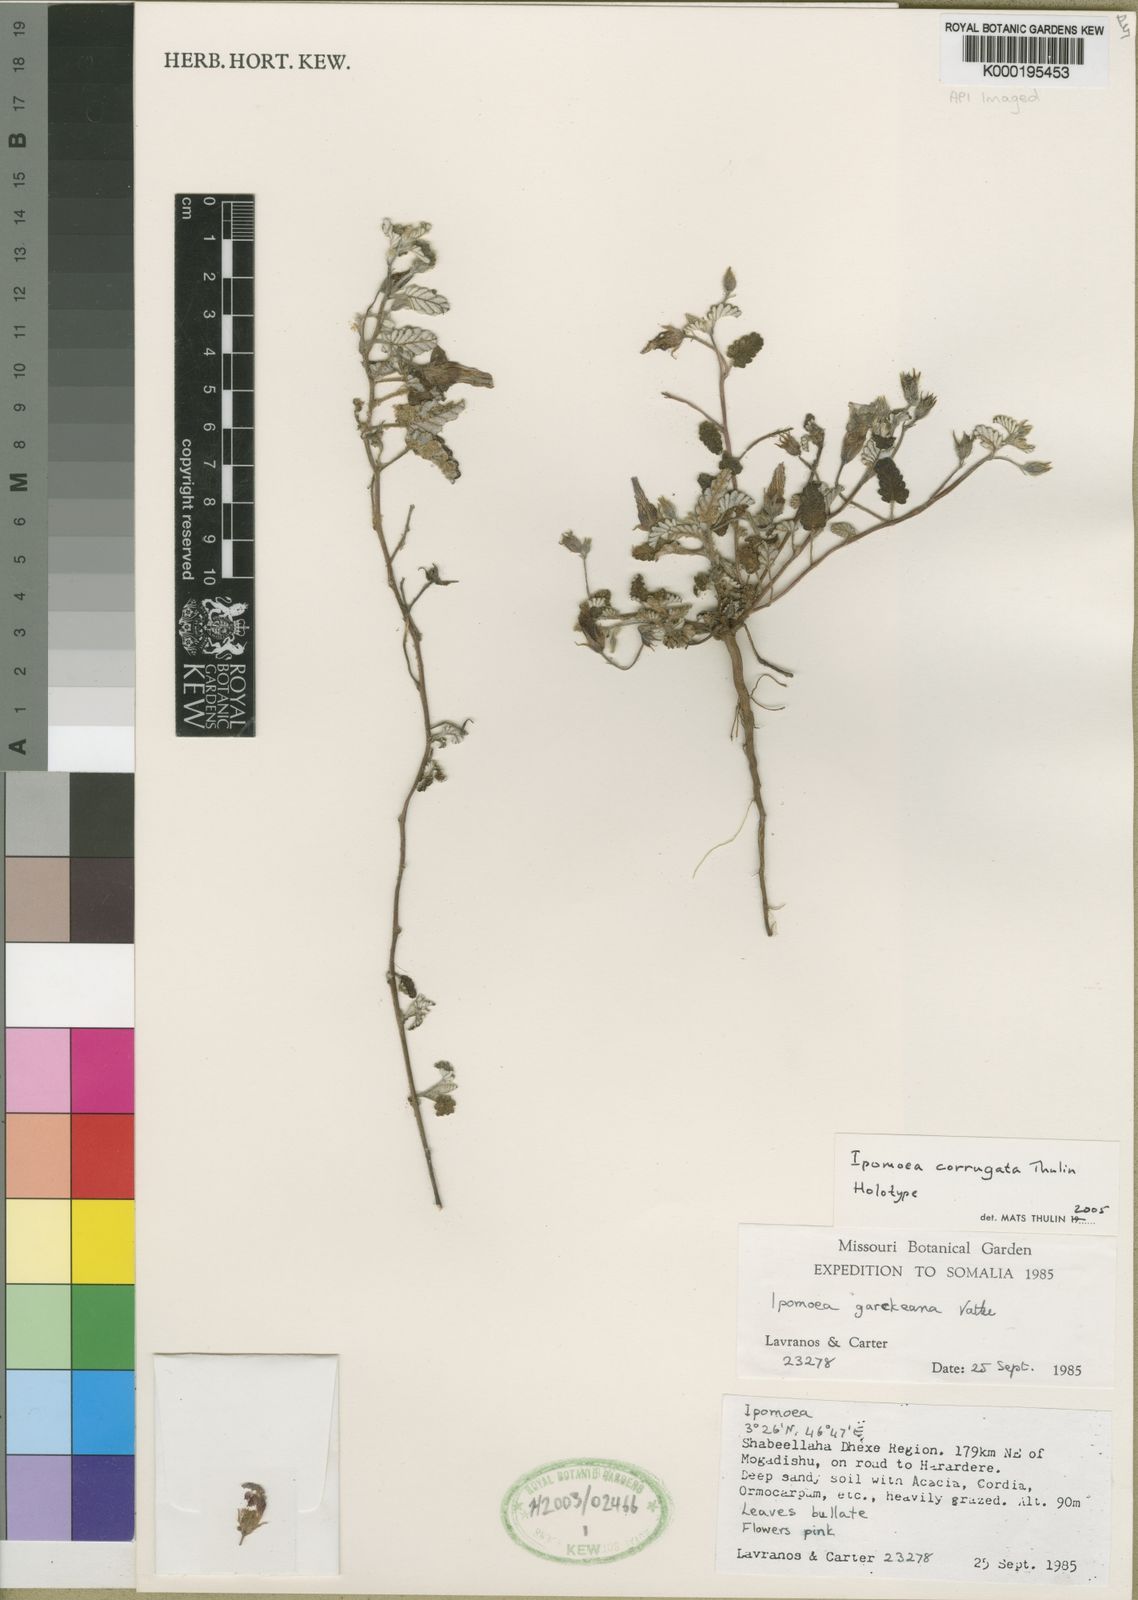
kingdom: Plantae
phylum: Tracheophyta
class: Magnoliopsida
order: Solanales
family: Convolvulaceae
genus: Ipomoea
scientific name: Ipomoea corrugata
